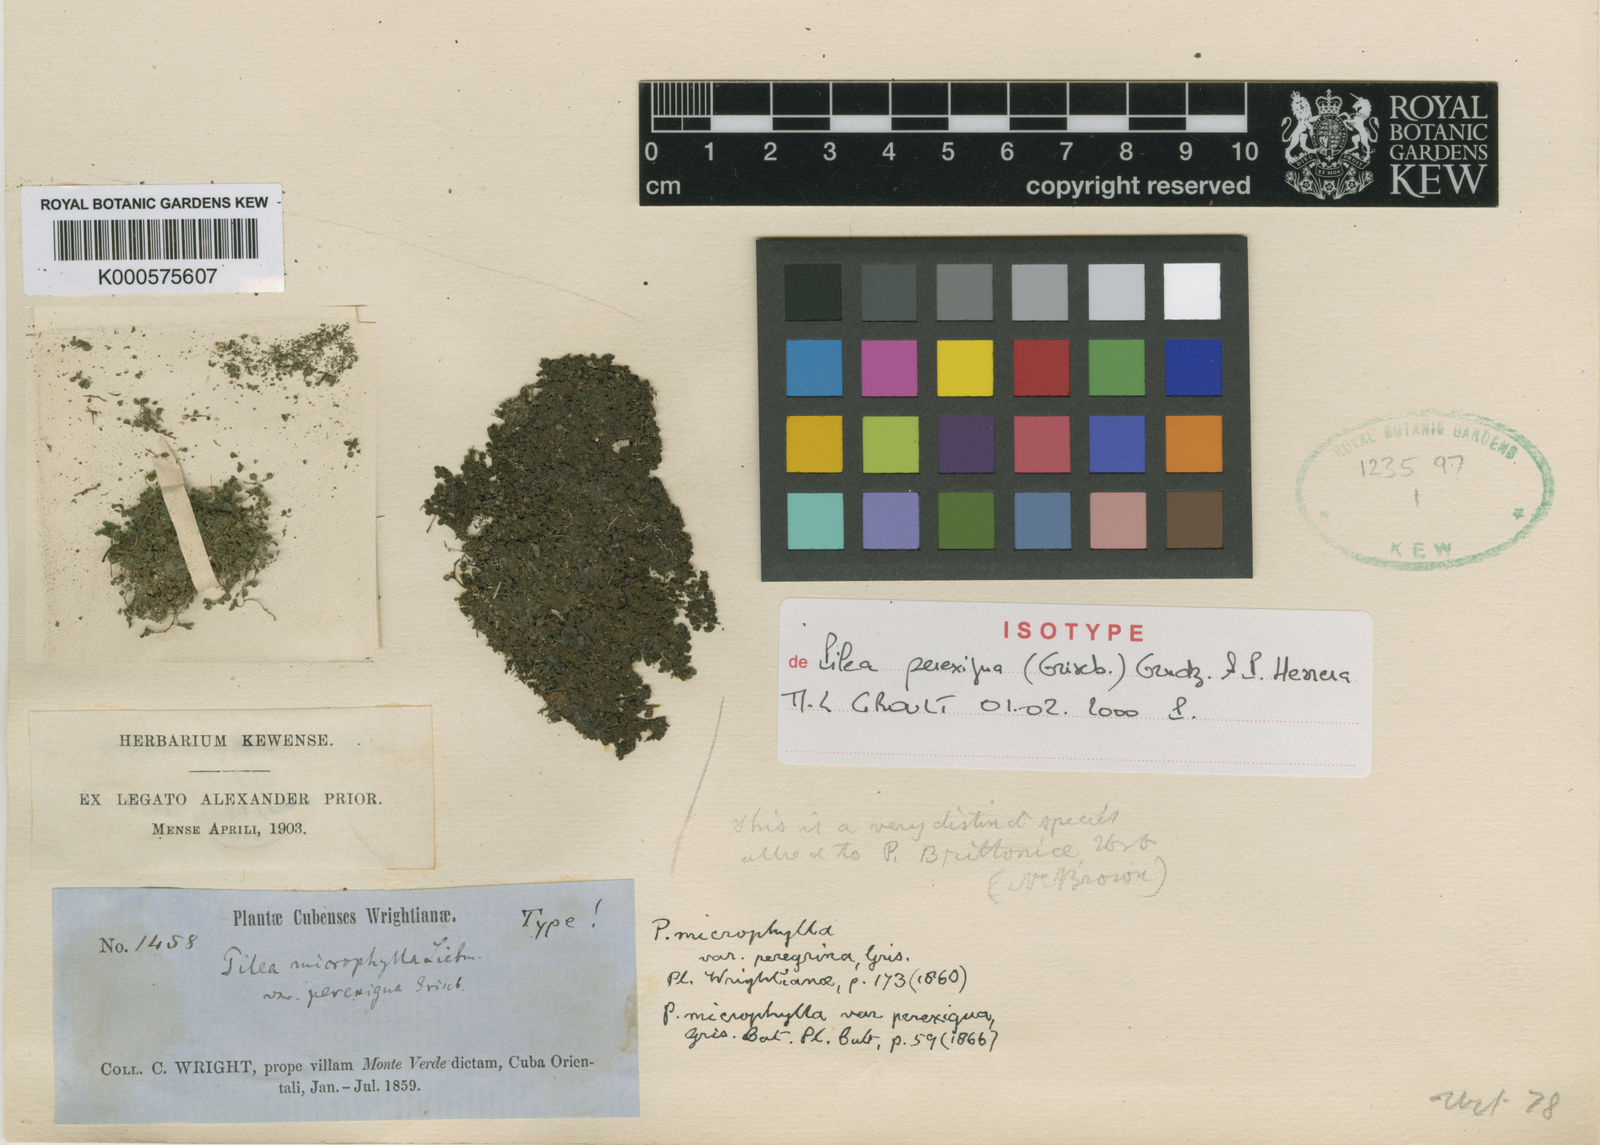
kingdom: Plantae
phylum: Tracheophyta
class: Magnoliopsida
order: Rosales
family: Urticaceae
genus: Pilea
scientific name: Pilea herniarioides
